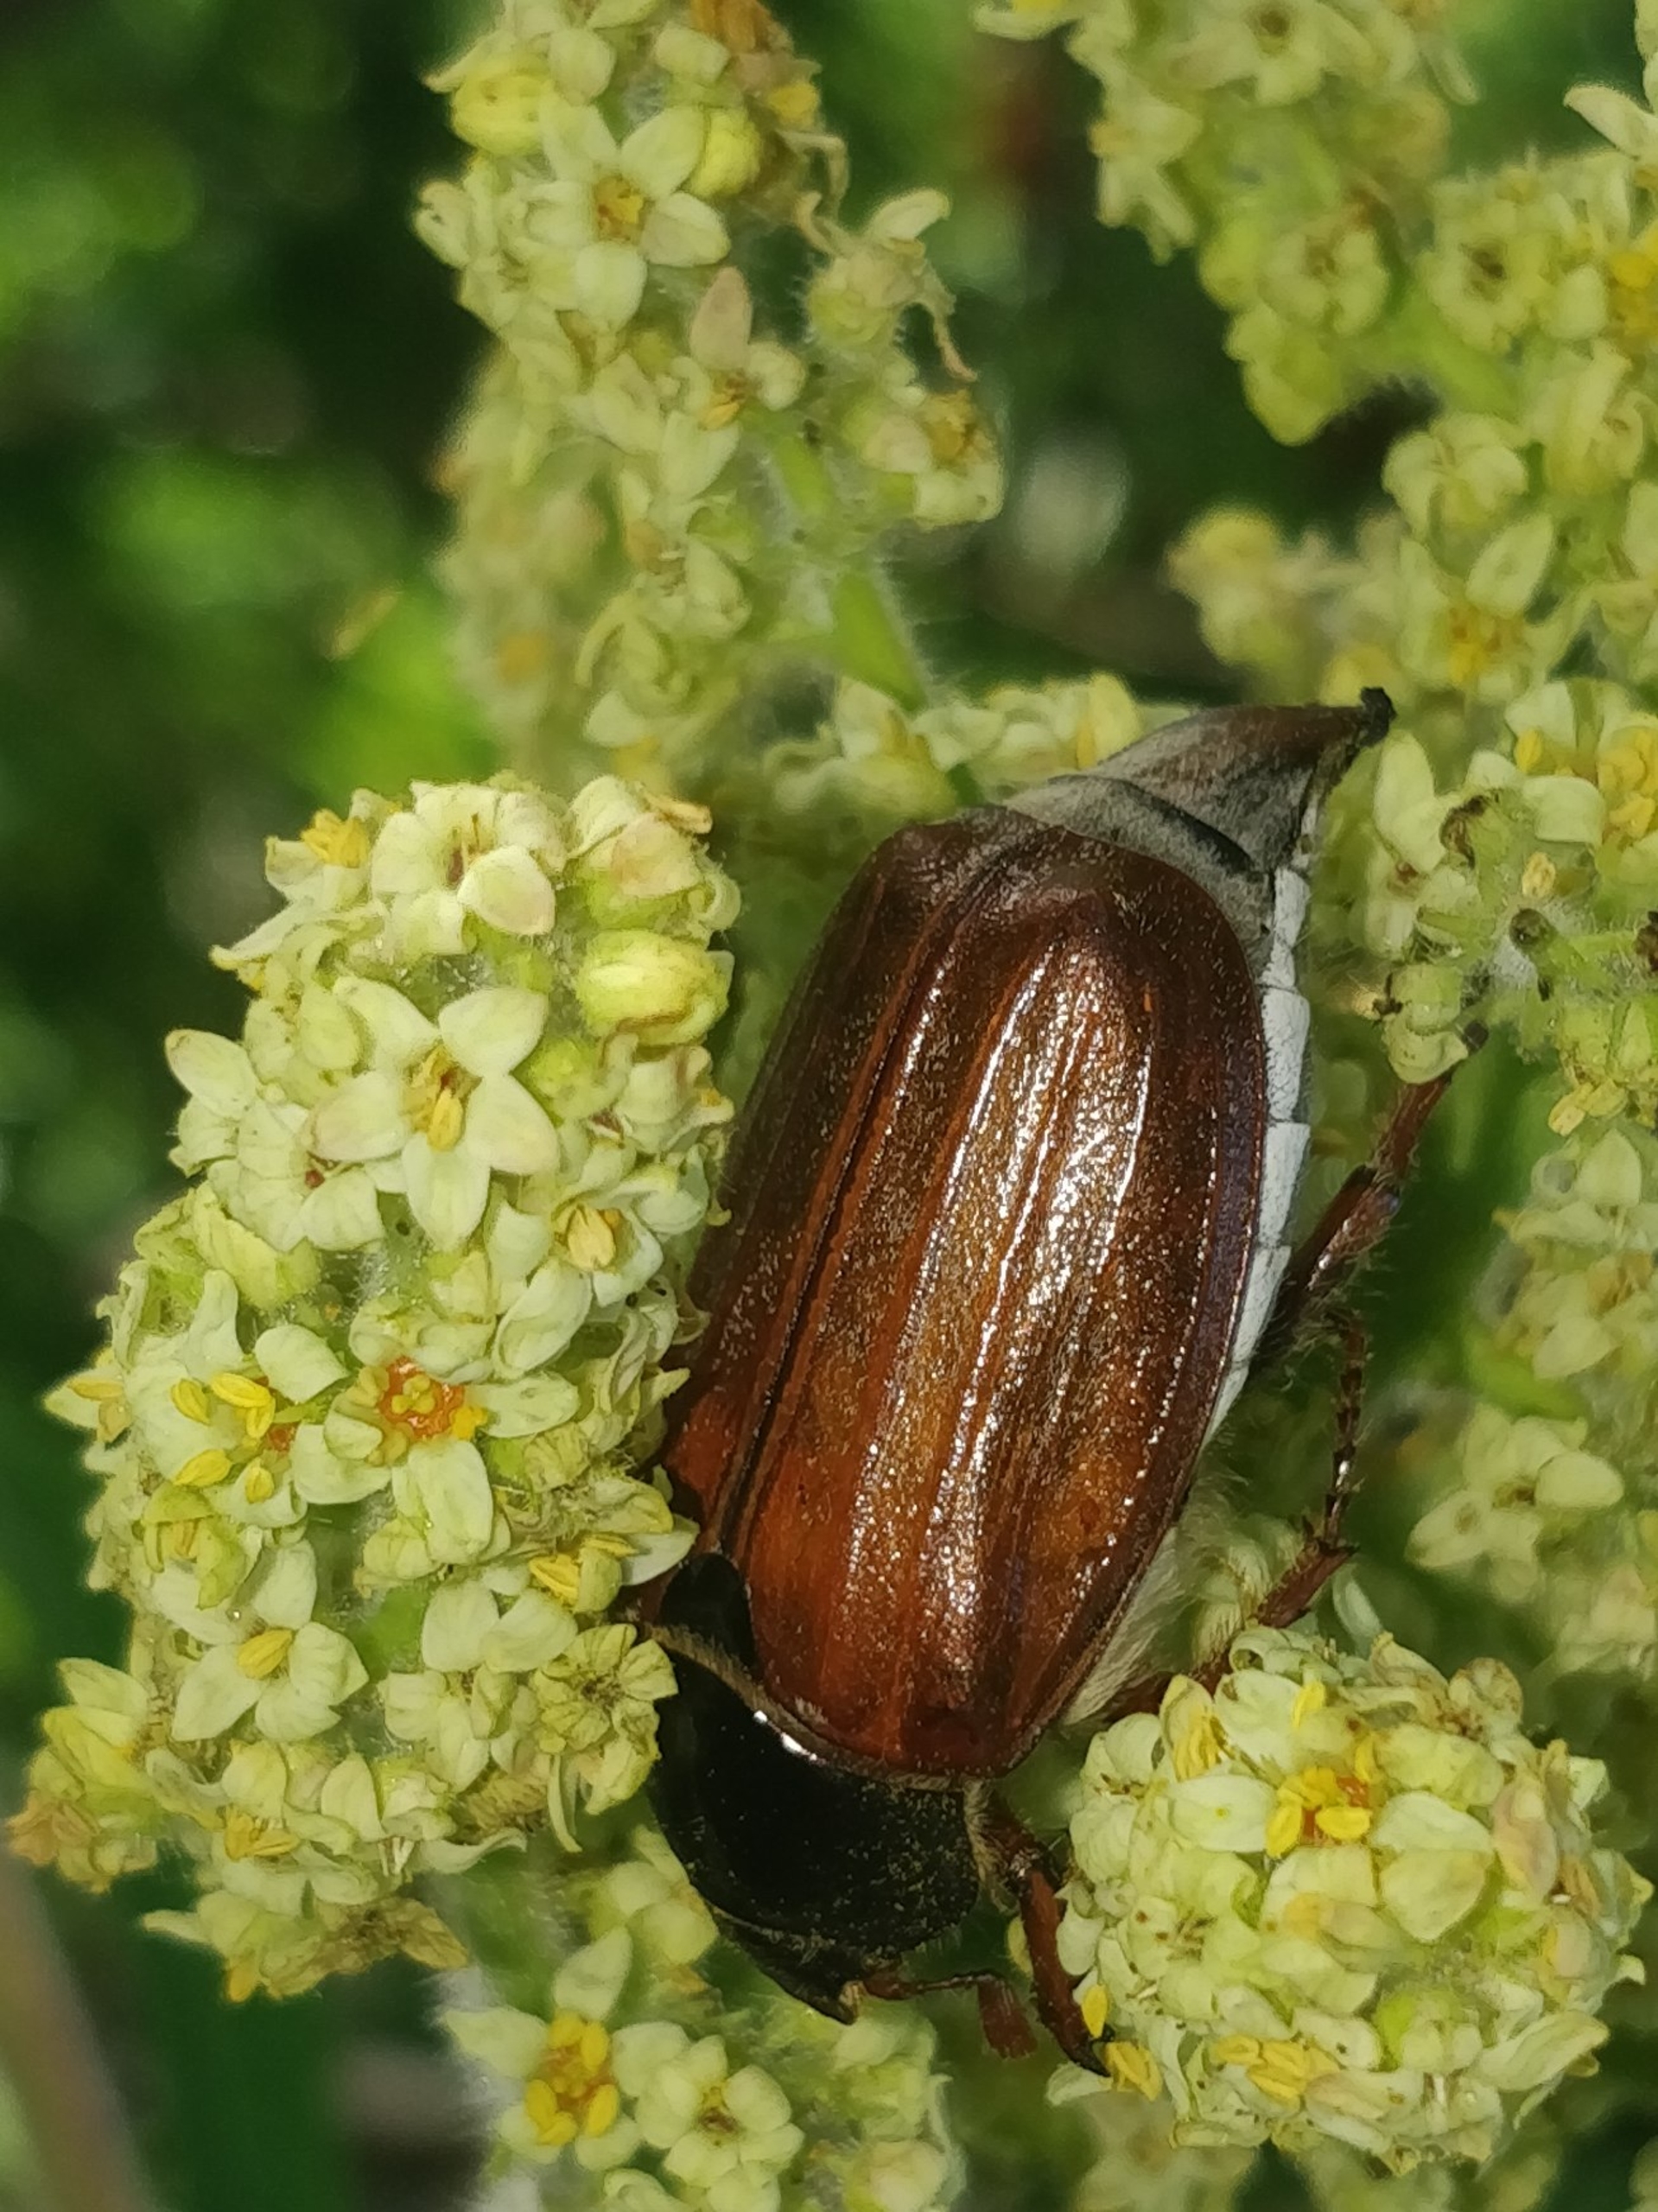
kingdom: Animalia
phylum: Arthropoda
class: Insecta
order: Coleoptera
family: Scarabaeidae
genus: Melolontha
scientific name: Melolontha hippocastani
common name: Sortrandet oldenborre
